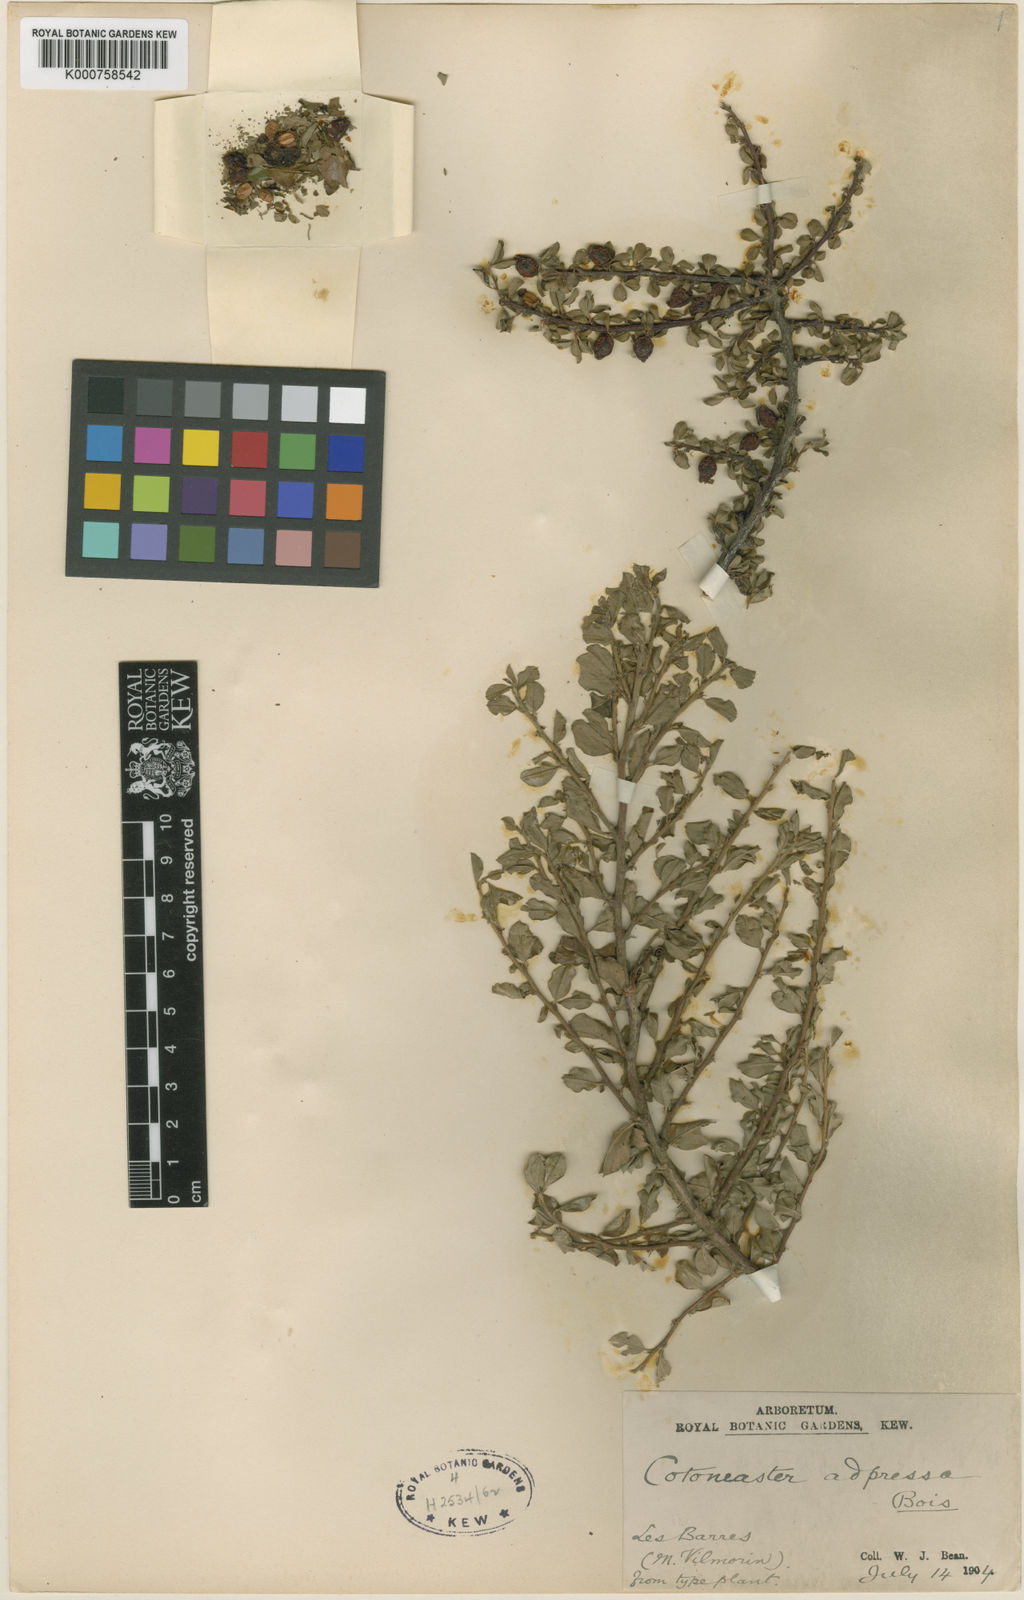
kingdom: Plantae
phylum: Tracheophyta
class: Magnoliopsida
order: Rosales
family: Rosaceae
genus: Cotoneaster
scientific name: Cotoneaster adpressus
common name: Creeping cotoneaster
